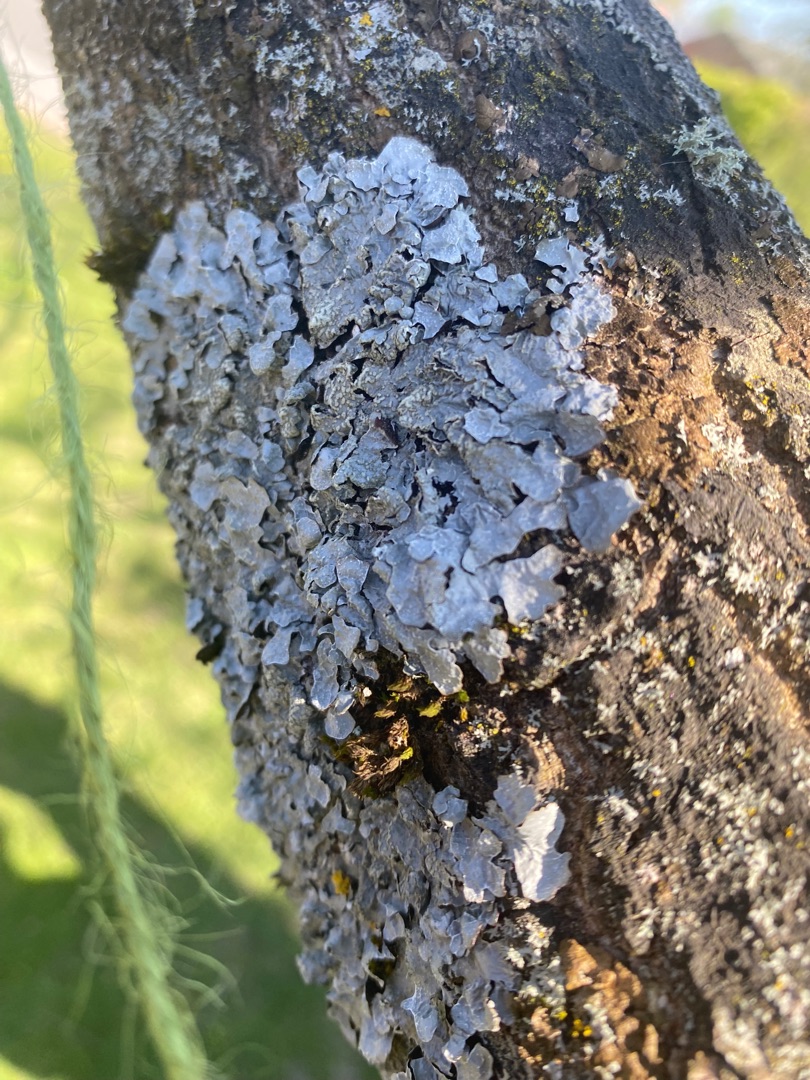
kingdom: Fungi
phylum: Ascomycota
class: Lecanoromycetes
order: Lecanorales
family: Parmeliaceae
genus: Parmelia
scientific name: Parmelia sulcata
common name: Rynket skållav
